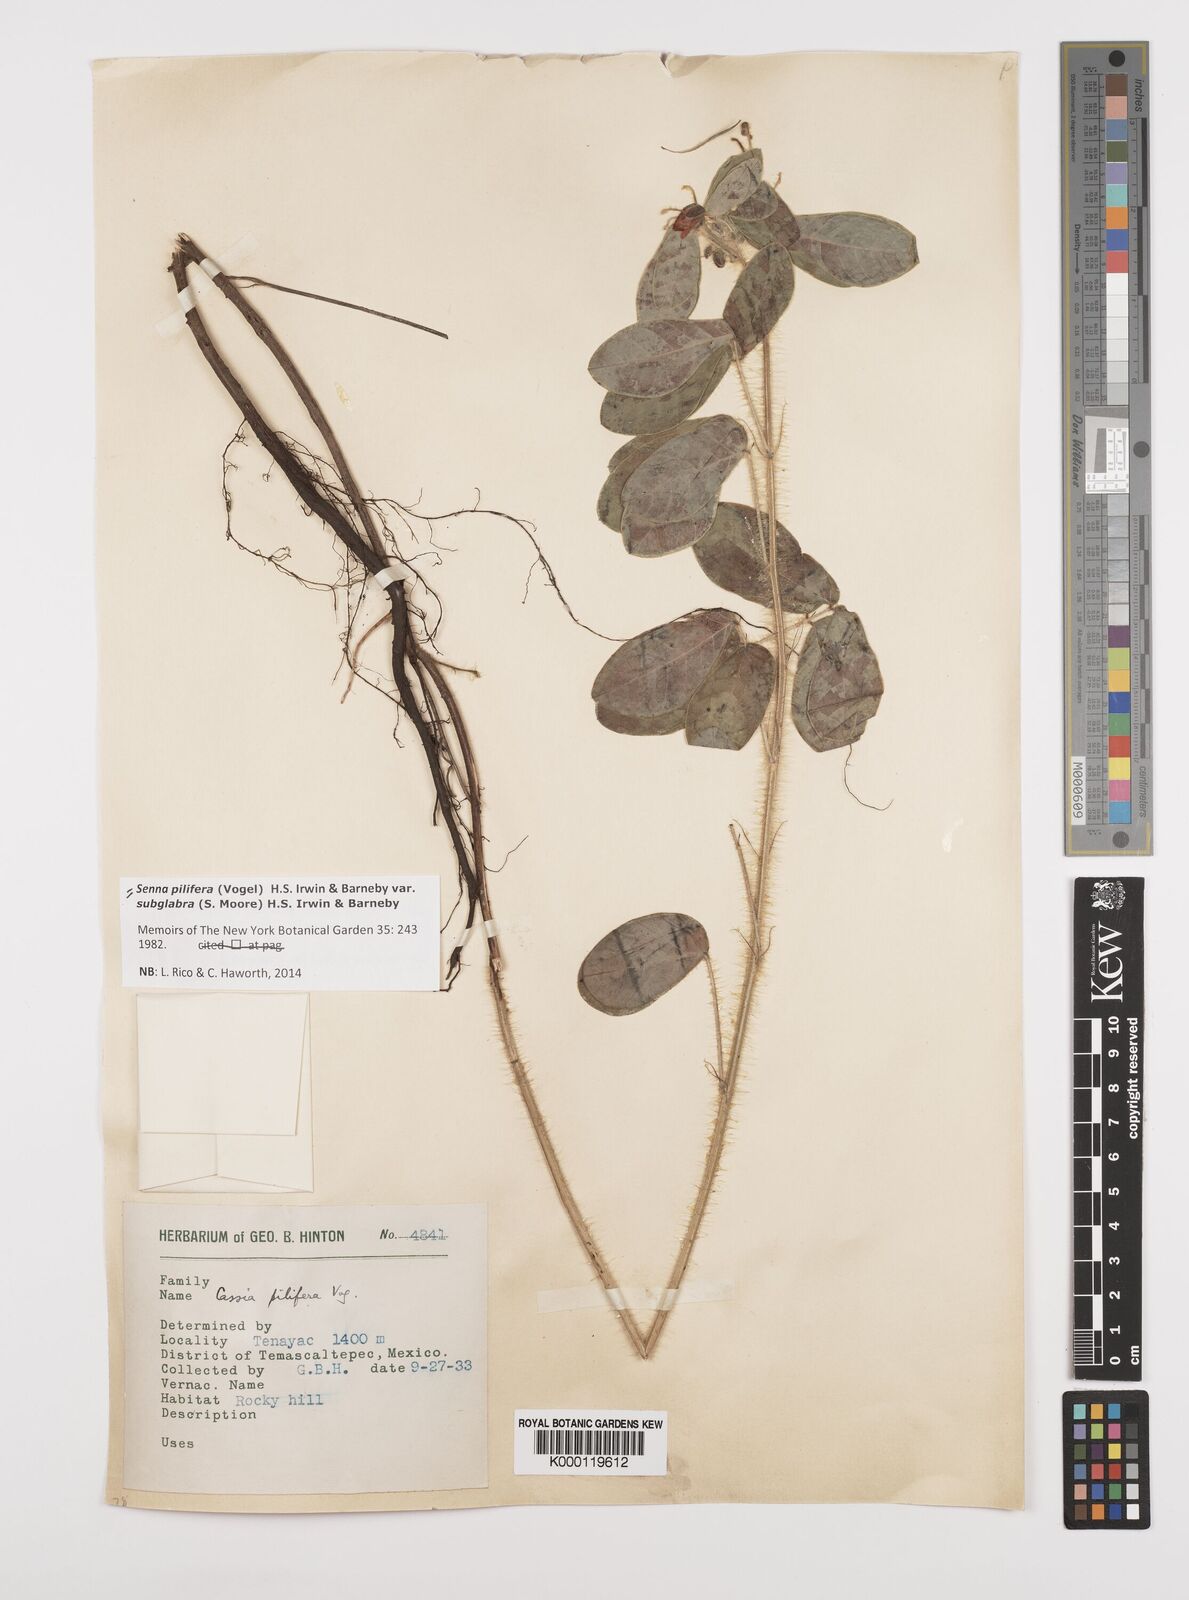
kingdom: Plantae
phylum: Tracheophyta
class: Magnoliopsida
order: Fabales
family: Fabaceae
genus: Senna
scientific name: Senna pilifera
